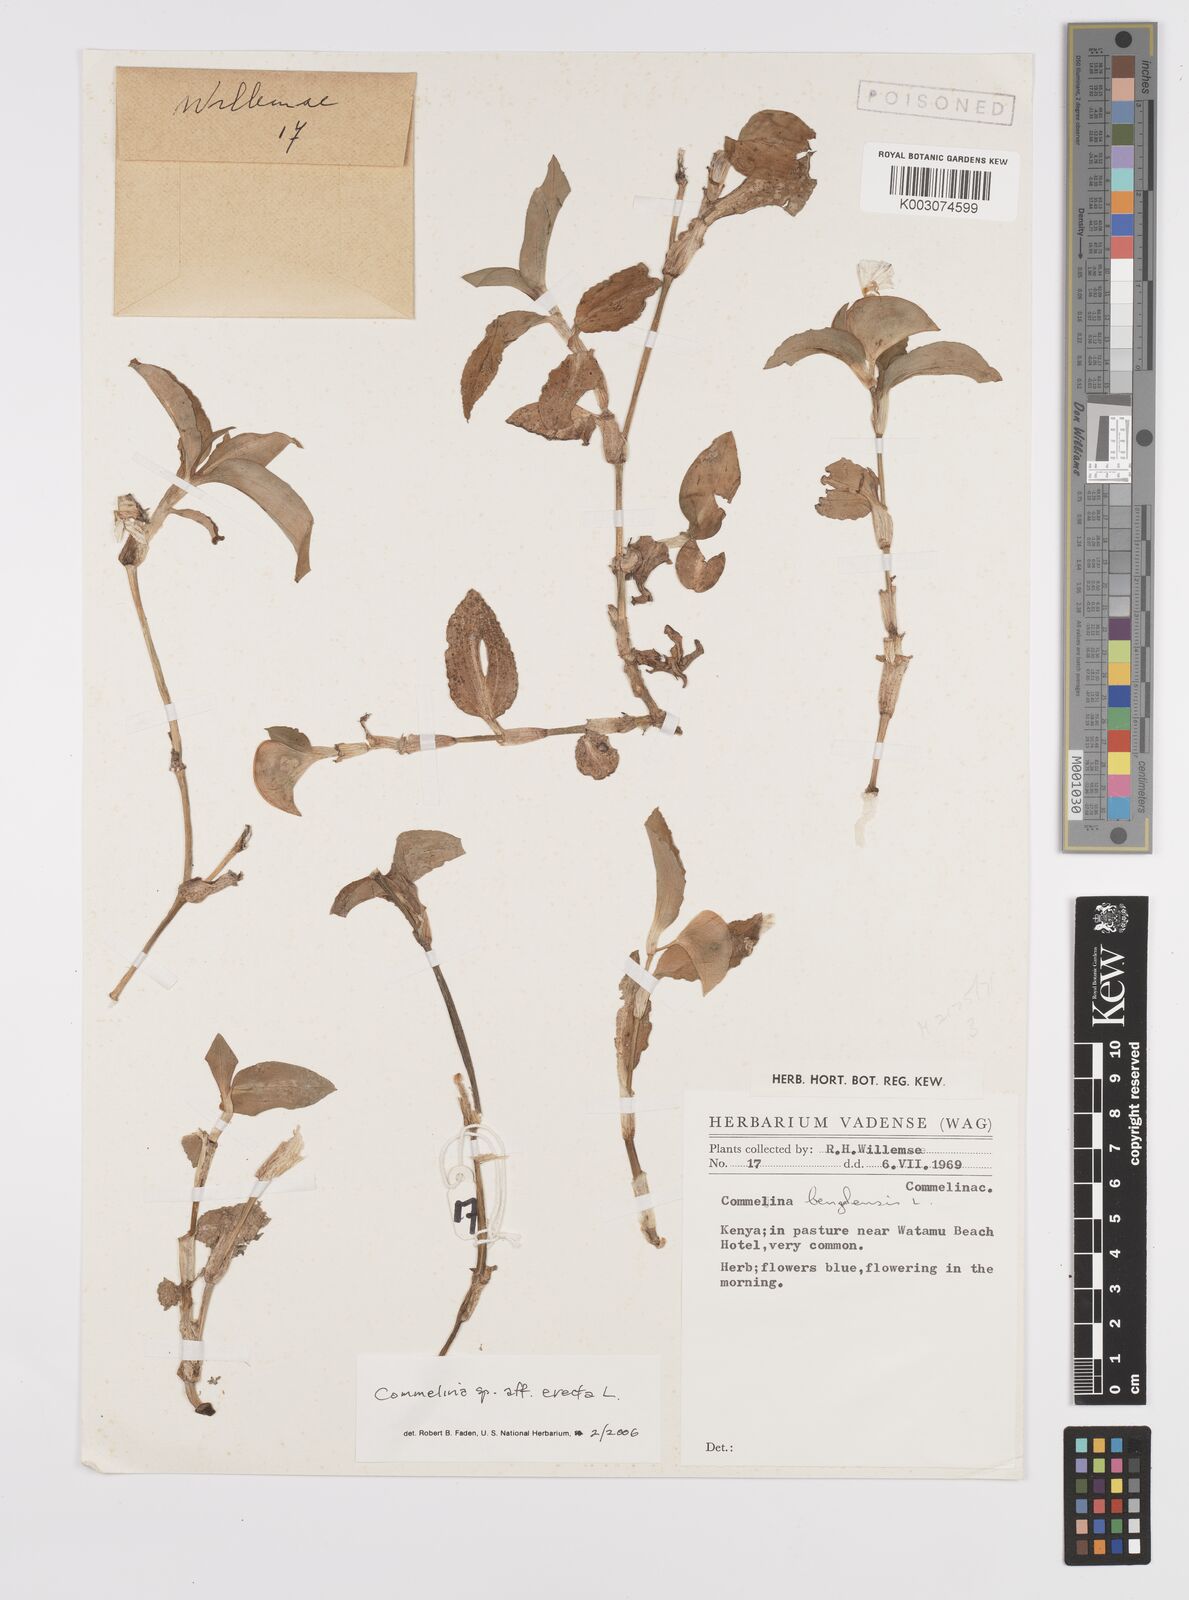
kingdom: Plantae
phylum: Tracheophyta
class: Liliopsida
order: Commelinales
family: Commelinaceae
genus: Commelina
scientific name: Commelina erecta
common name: Blousel blommetjie
